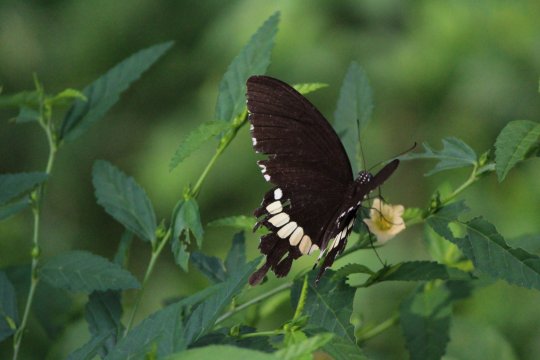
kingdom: Animalia
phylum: Arthropoda
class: Insecta
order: Lepidoptera
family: Papilionidae
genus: Papilio
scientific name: Papilio polytes
